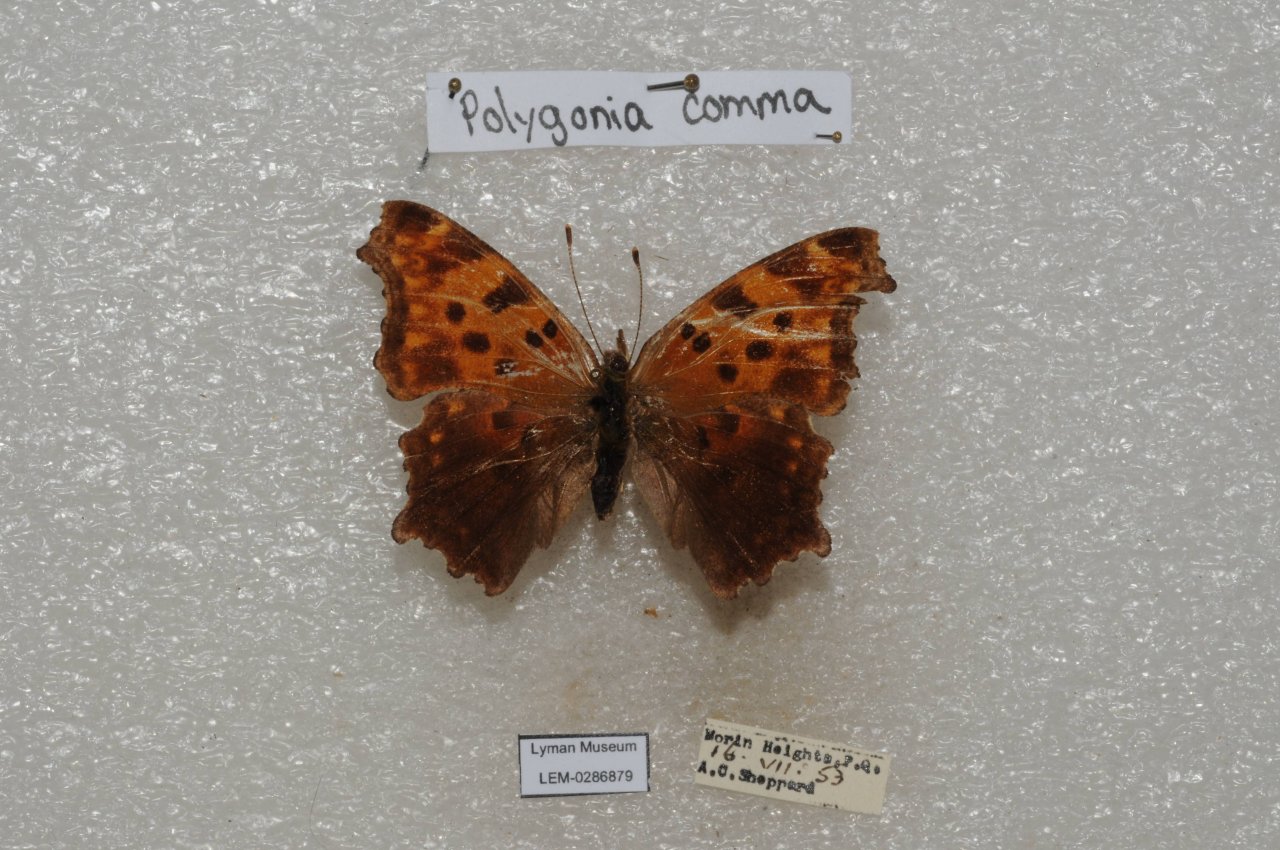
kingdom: Animalia
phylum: Arthropoda
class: Insecta
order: Lepidoptera
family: Nymphalidae
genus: Polygonia
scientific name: Polygonia comma
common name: Eastern Comma
